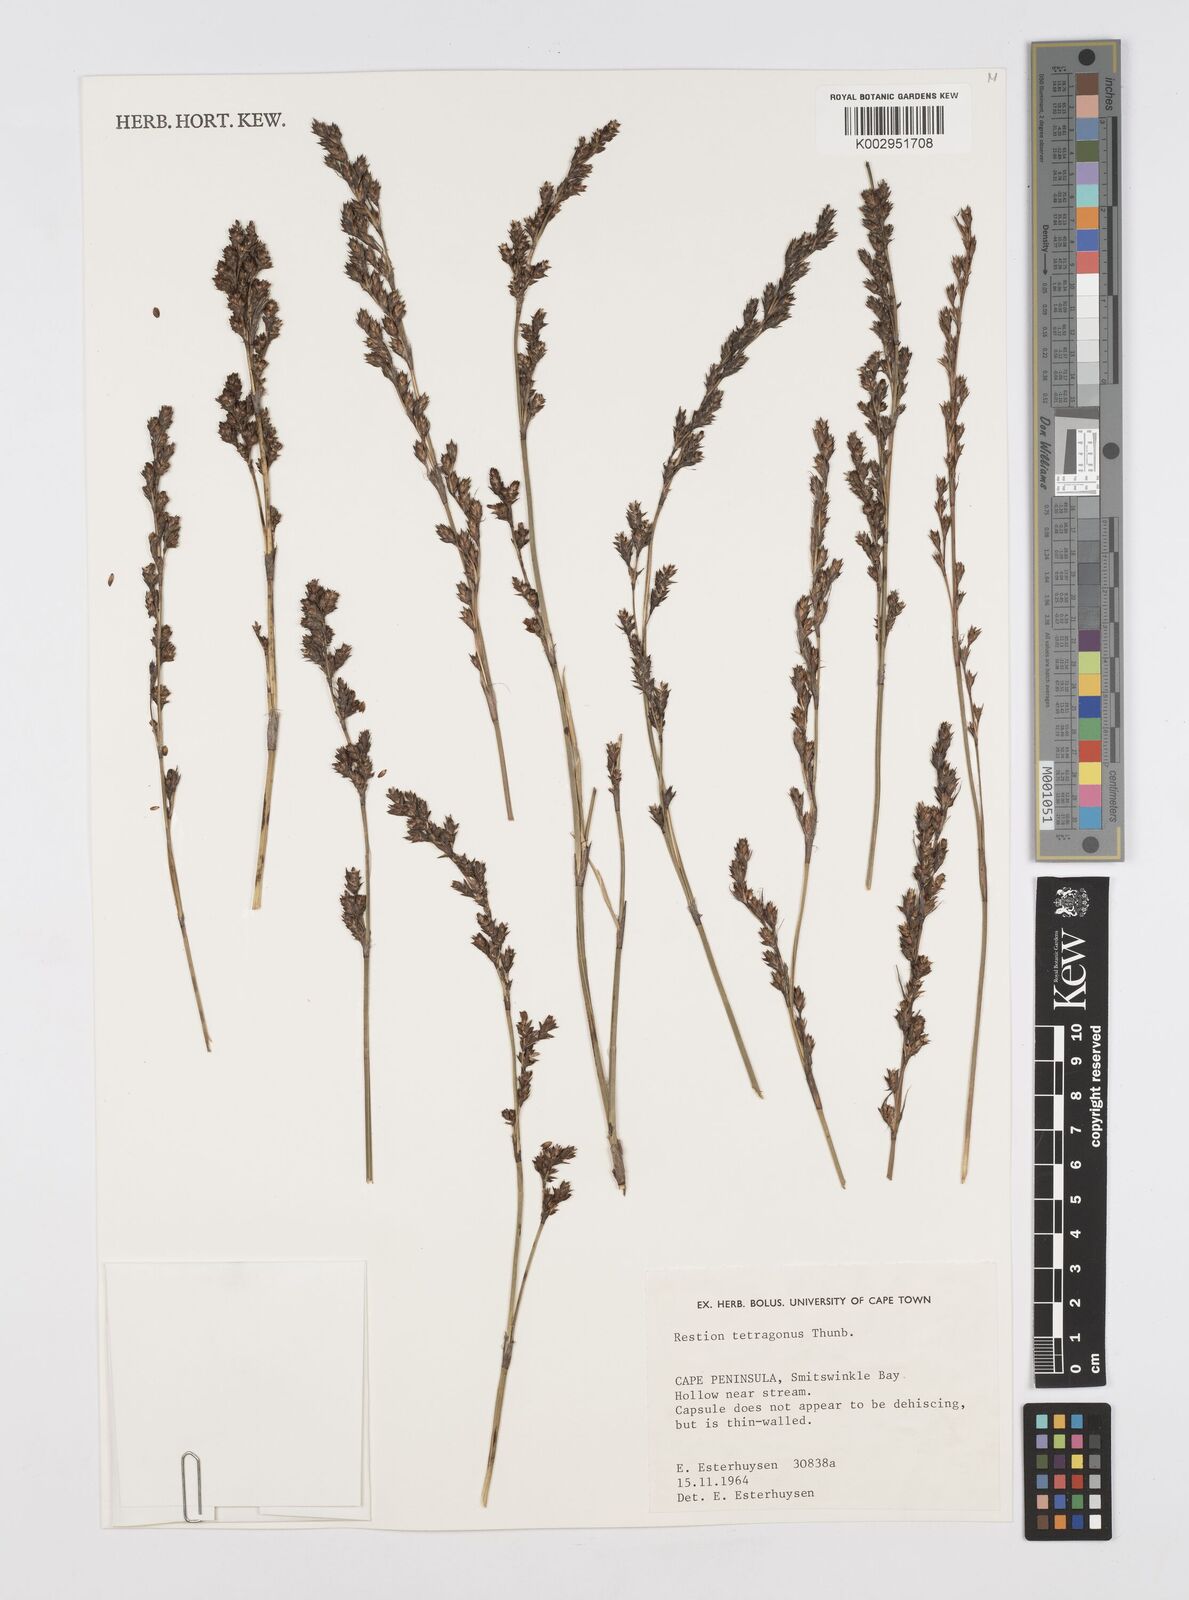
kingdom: Plantae
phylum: Tracheophyta
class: Liliopsida
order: Poales
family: Restionaceae
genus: Restio
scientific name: Restio tetragonus
